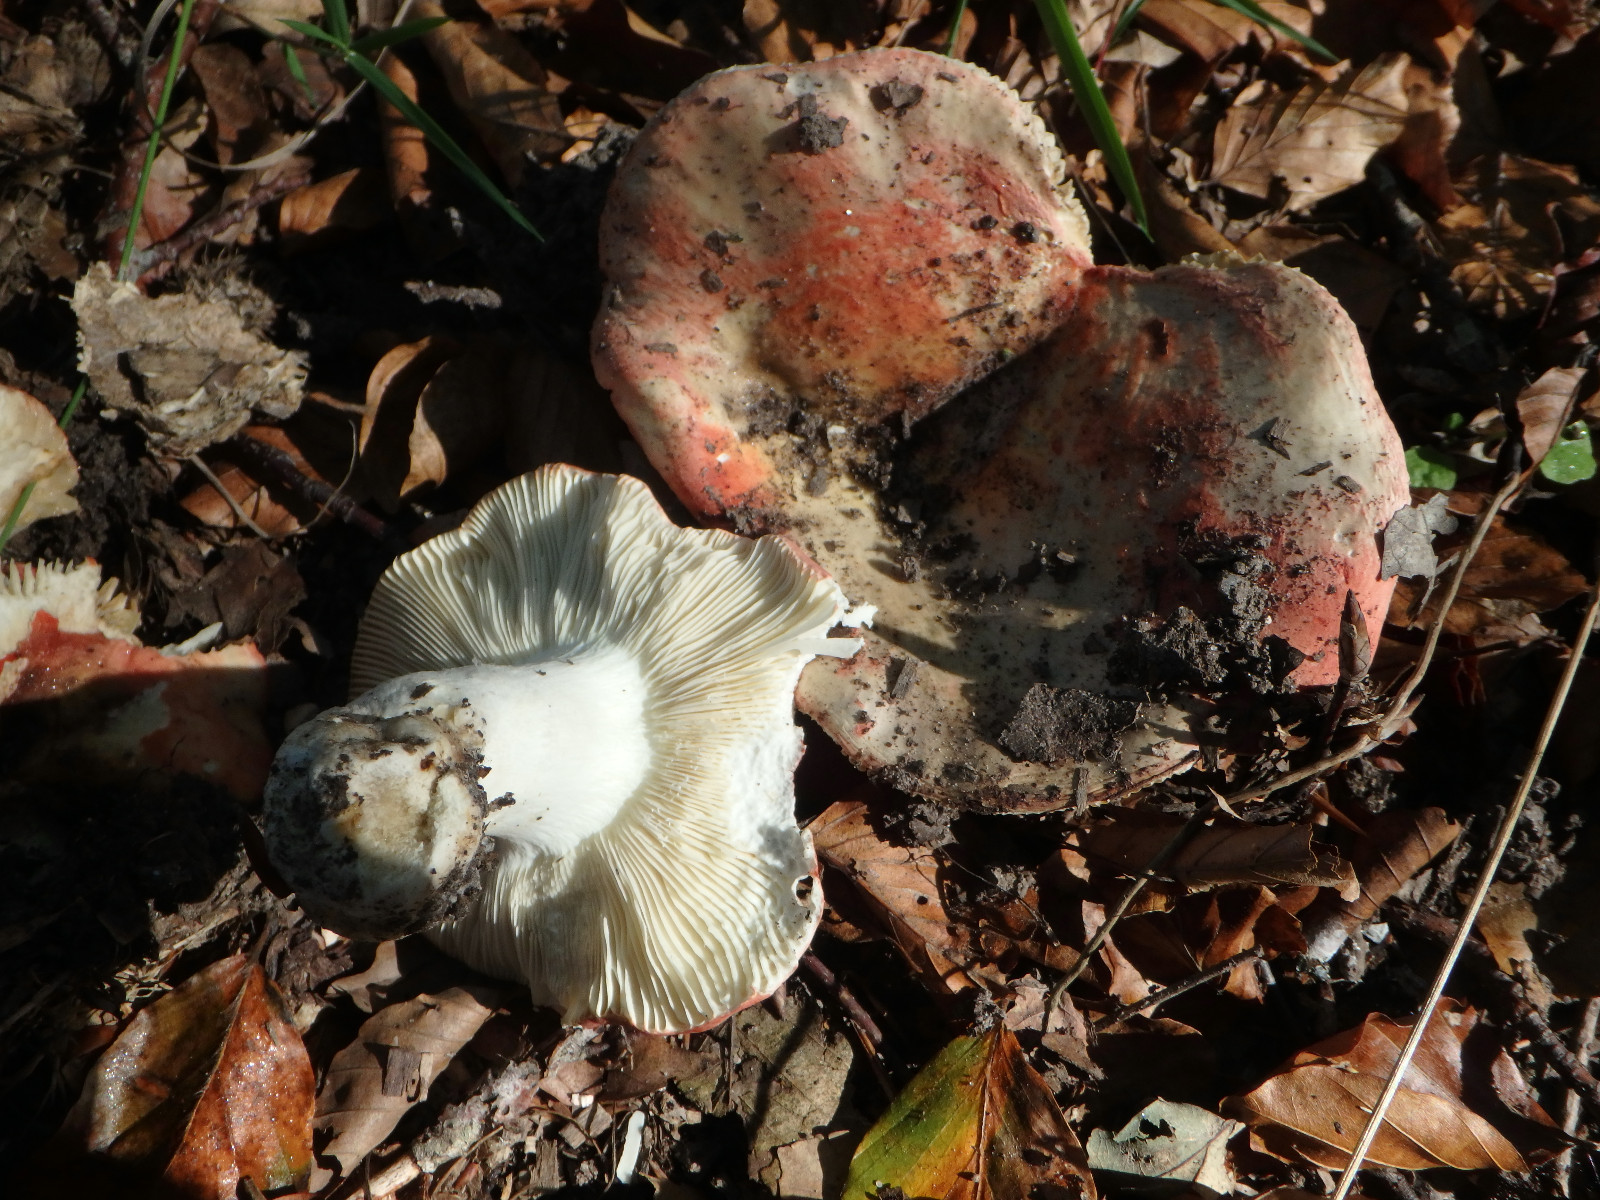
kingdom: Fungi
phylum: Basidiomycota
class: Agaricomycetes
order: Russulales
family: Russulaceae
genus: Russula
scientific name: Russula aurora
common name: rosa skørhat
